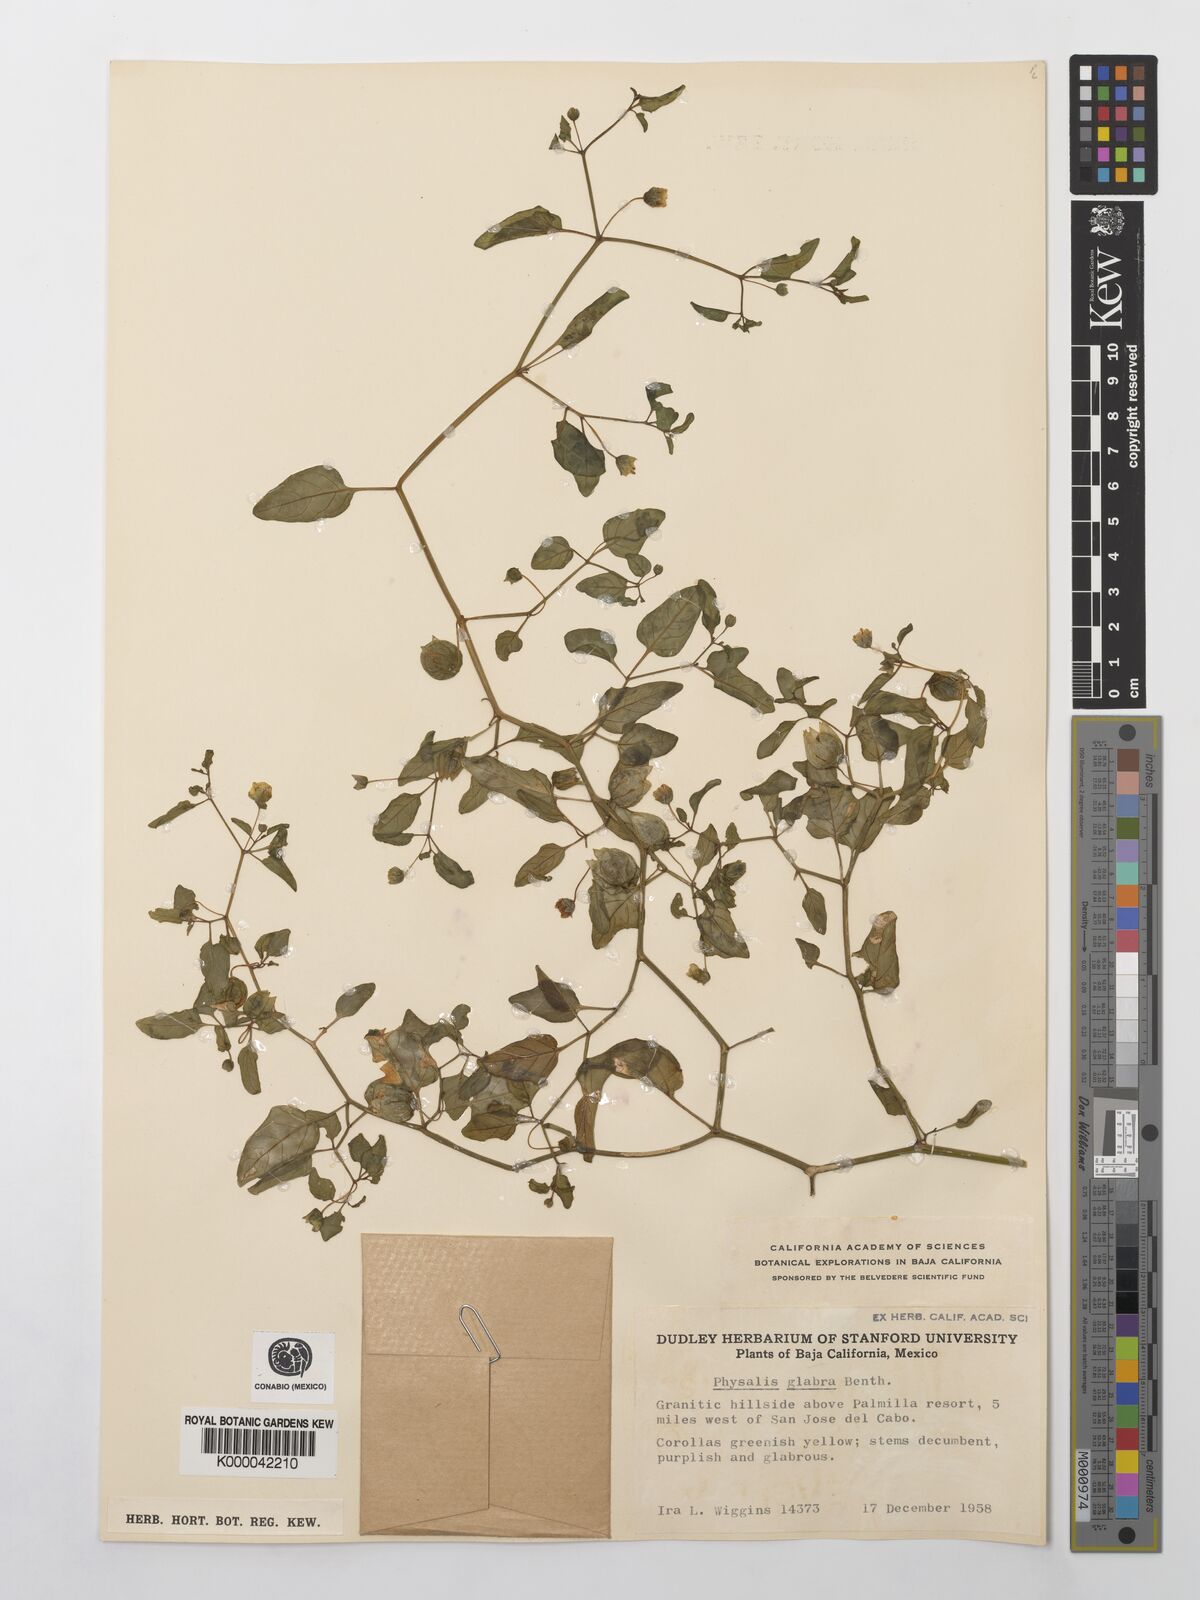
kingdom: Plantae
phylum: Tracheophyta
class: Magnoliopsida
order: Solanales
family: Solanaceae
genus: Physalis
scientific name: Physalis glabra
